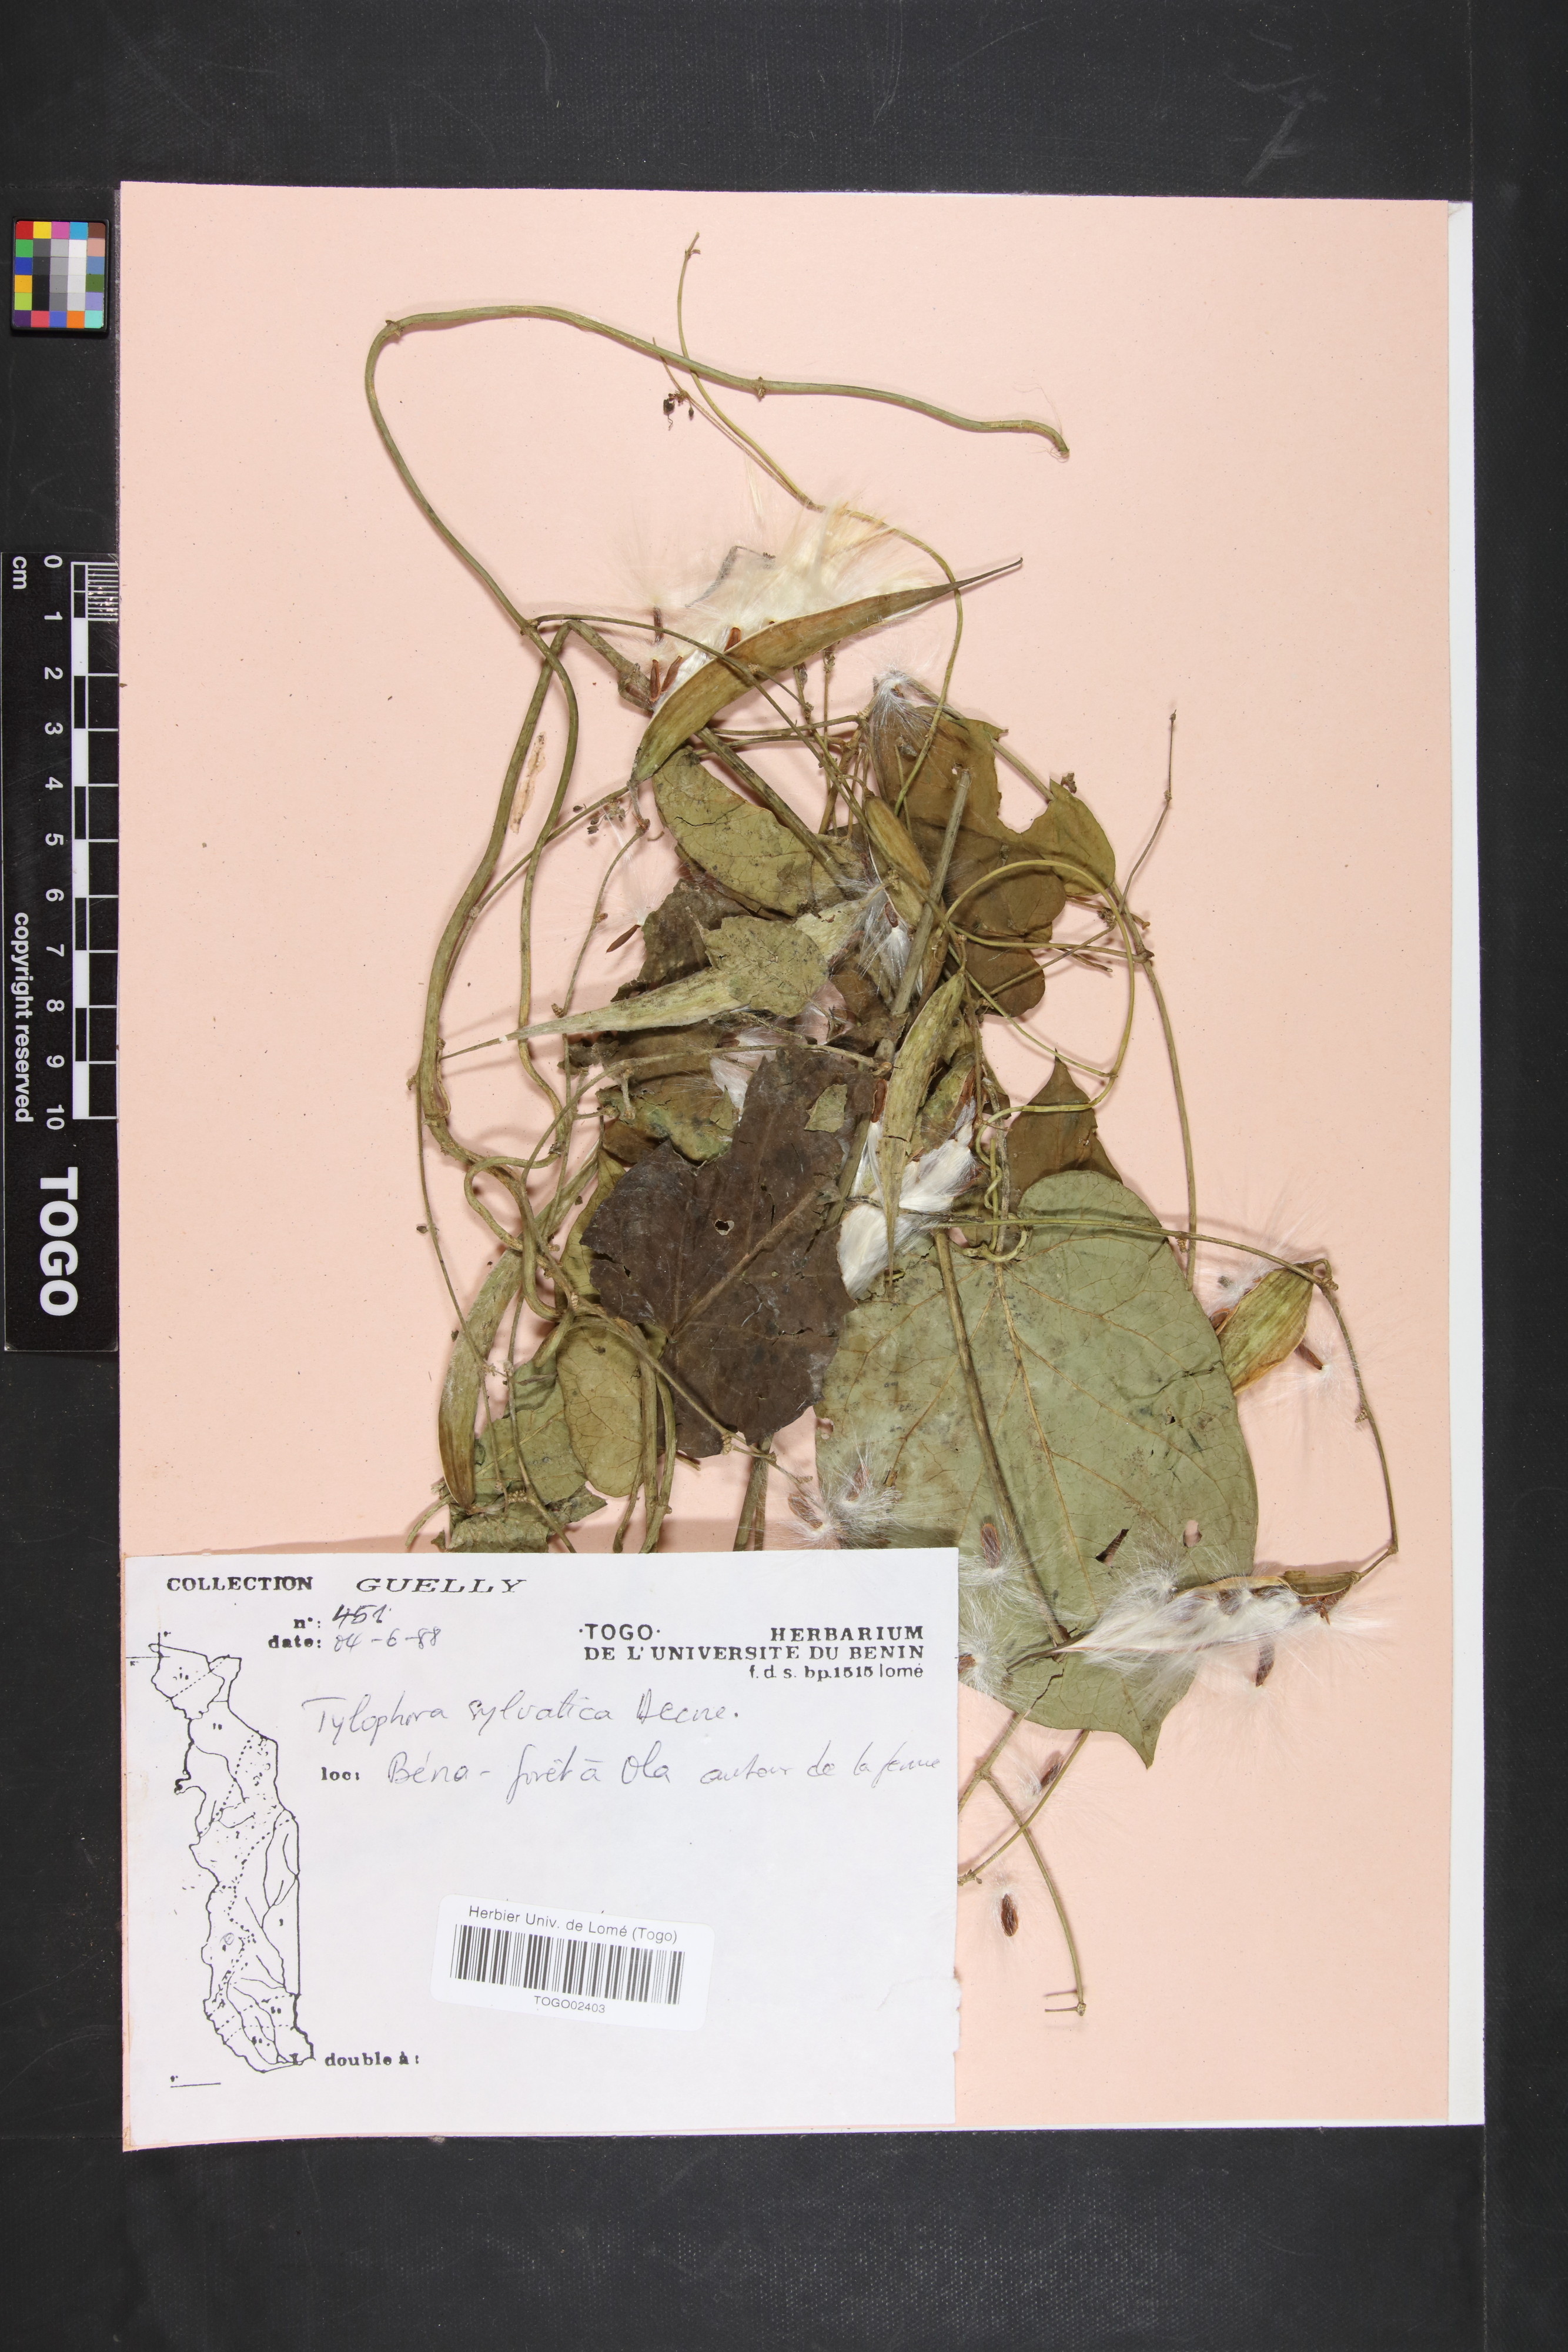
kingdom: Plantae
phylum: Tracheophyta
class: Magnoliopsida
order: Gentianales
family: Apocynaceae
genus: Vincetoxicum
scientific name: Vincetoxicum sylvaticum
